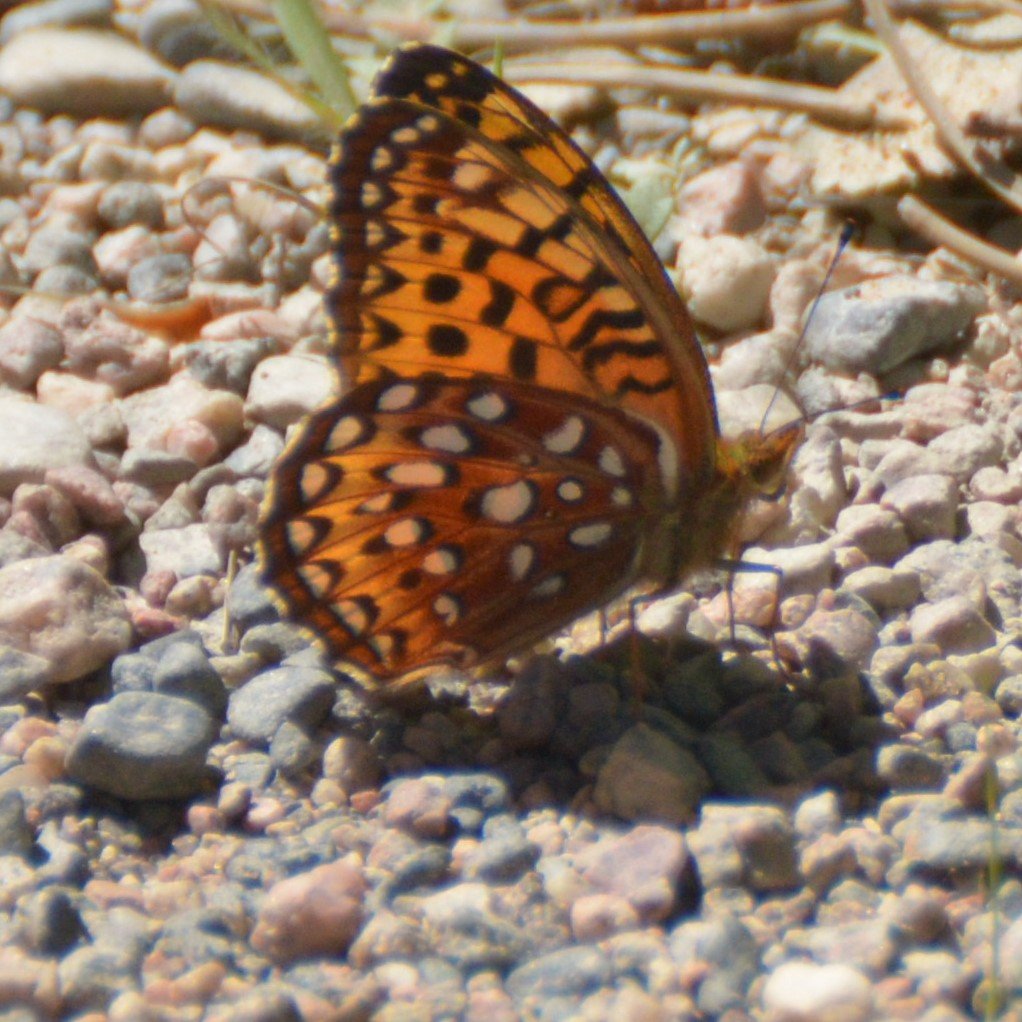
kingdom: Animalia
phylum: Arthropoda
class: Insecta
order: Lepidoptera
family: Nymphalidae
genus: Speyeria
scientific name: Speyeria aphrodite
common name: Aphrodite Fritillary
